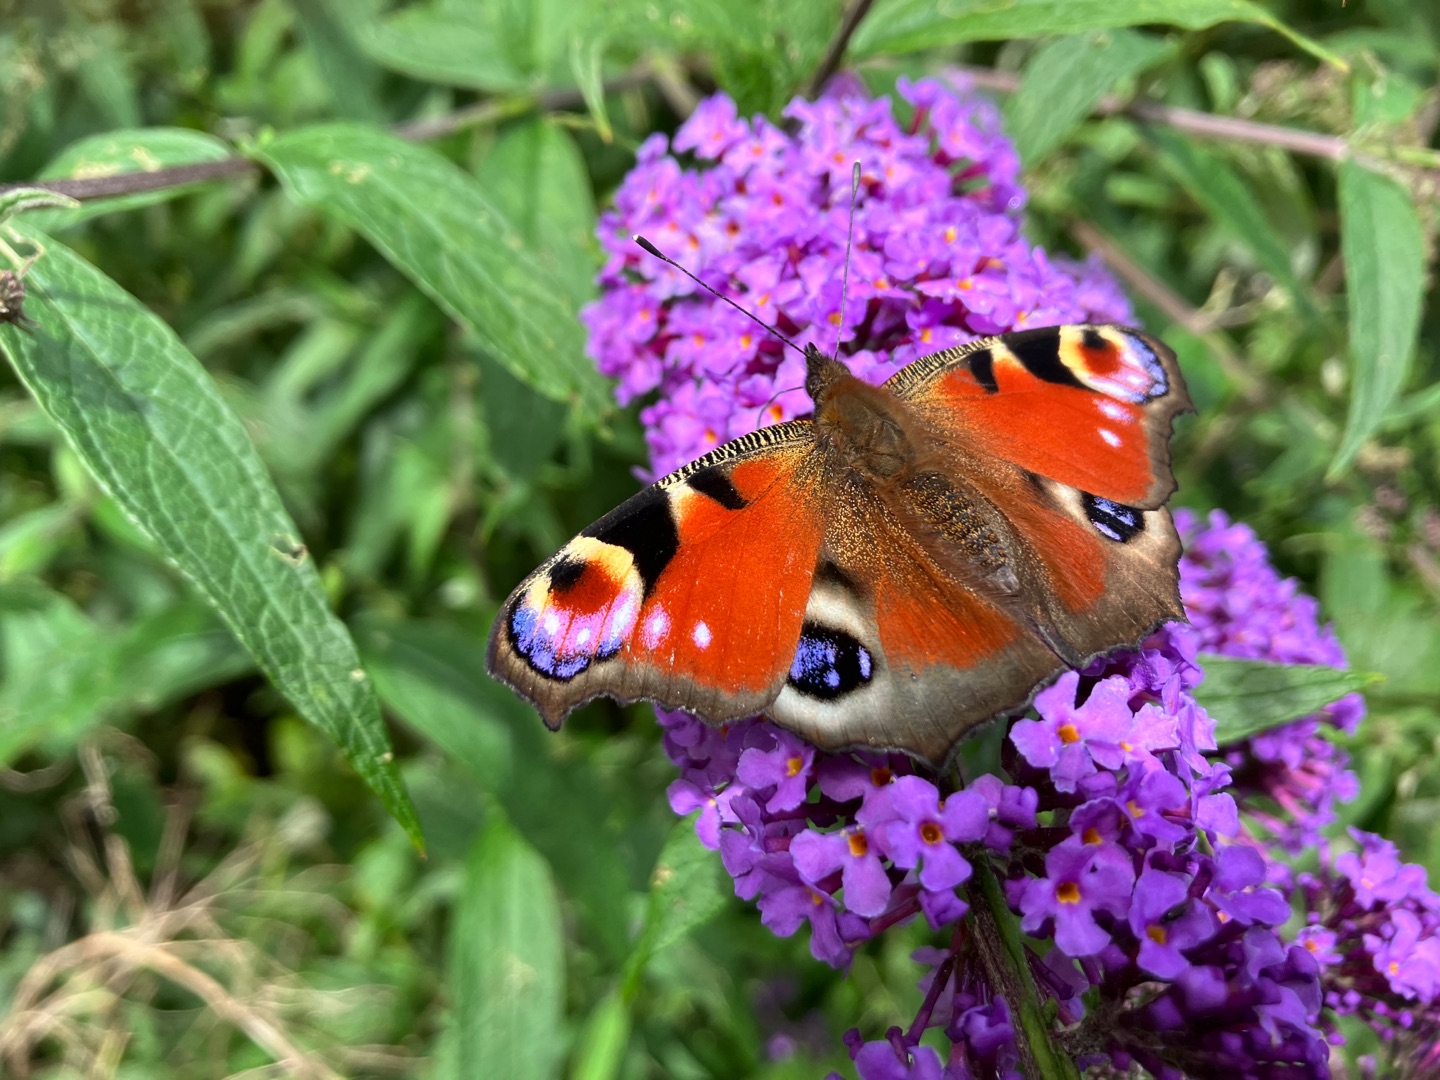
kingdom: Animalia
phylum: Arthropoda
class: Insecta
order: Lepidoptera
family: Nymphalidae
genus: Aglais
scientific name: Aglais io
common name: Dagpåfugleøje
